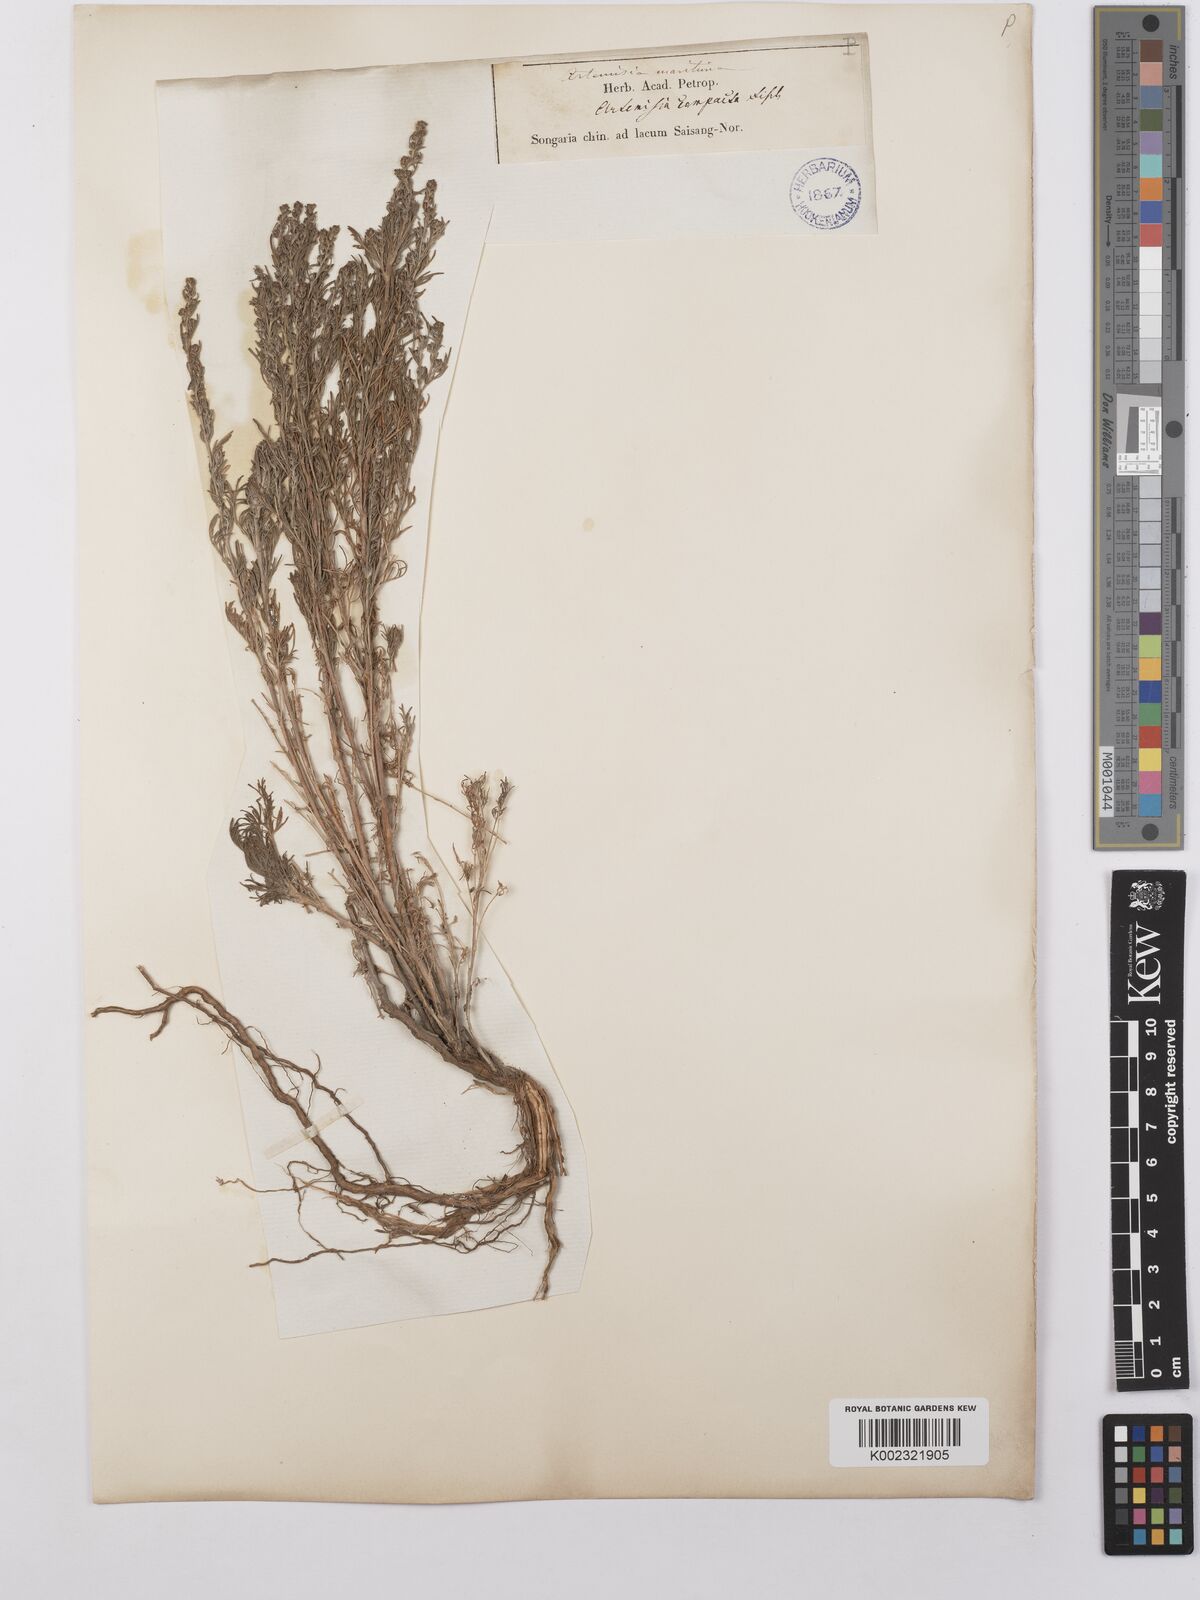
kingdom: Plantae
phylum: Tracheophyta
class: Magnoliopsida
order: Asterales
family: Asteraceae
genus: Artemisia
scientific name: Artemisia compacta
